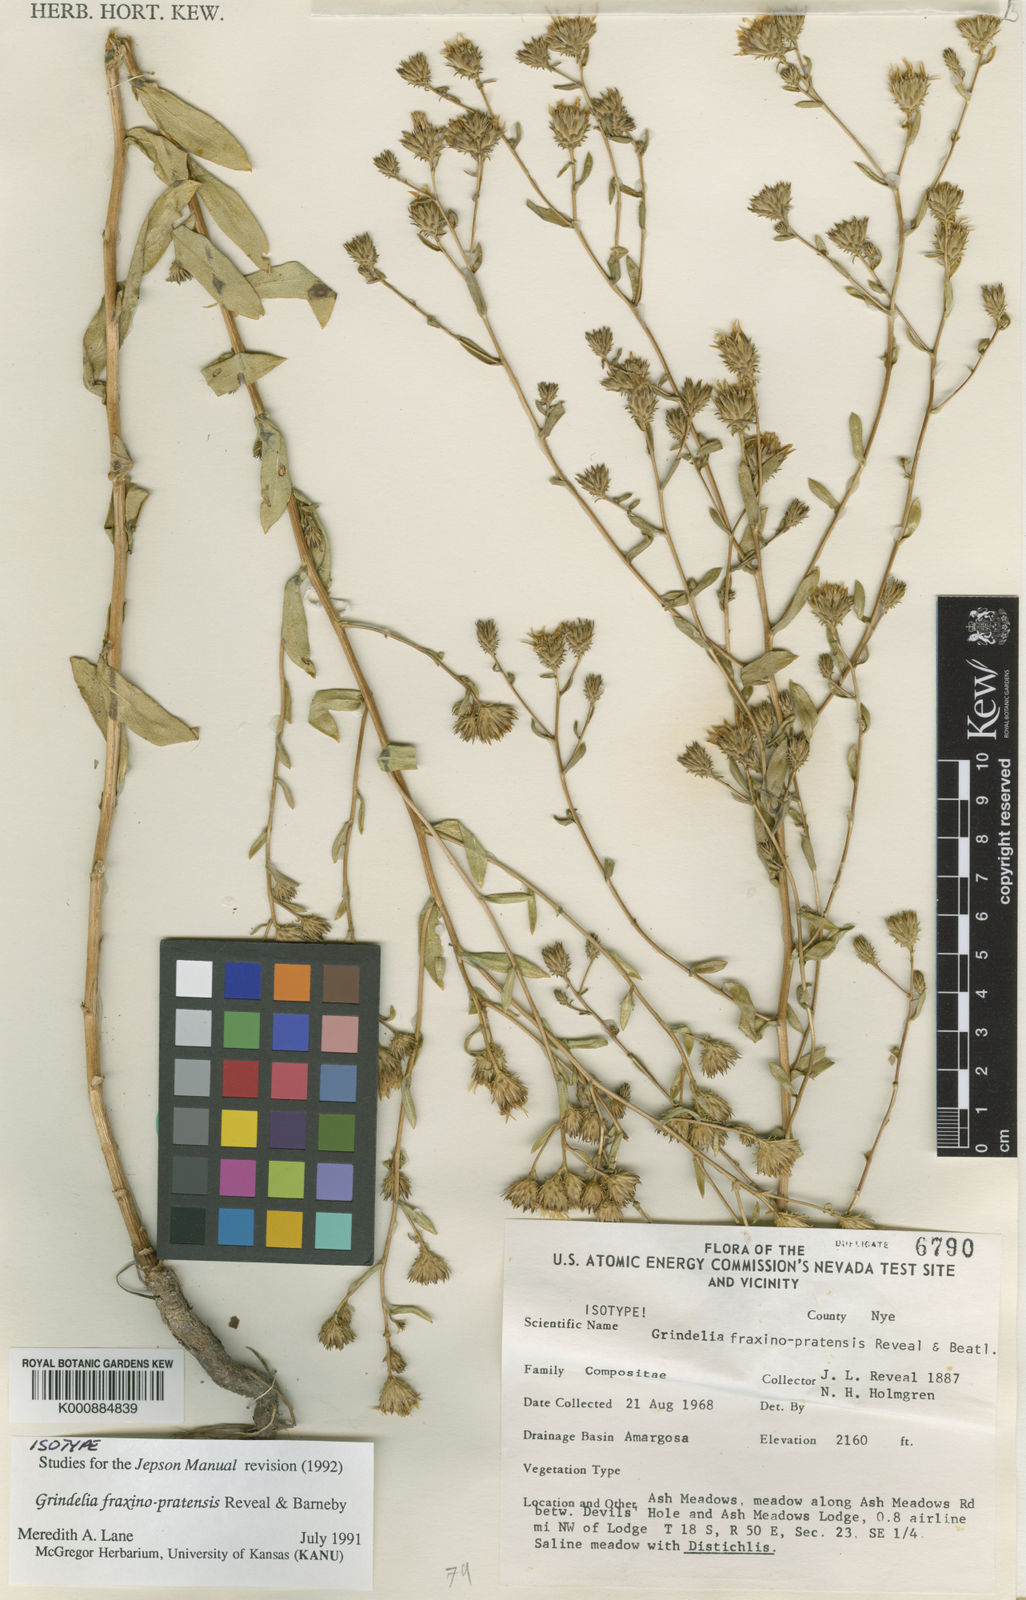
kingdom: Plantae
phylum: Tracheophyta
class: Magnoliopsida
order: Asterales
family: Asteraceae
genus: Grindelia
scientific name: Grindelia fraxinipratensis
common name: Ash meadows gumplant
